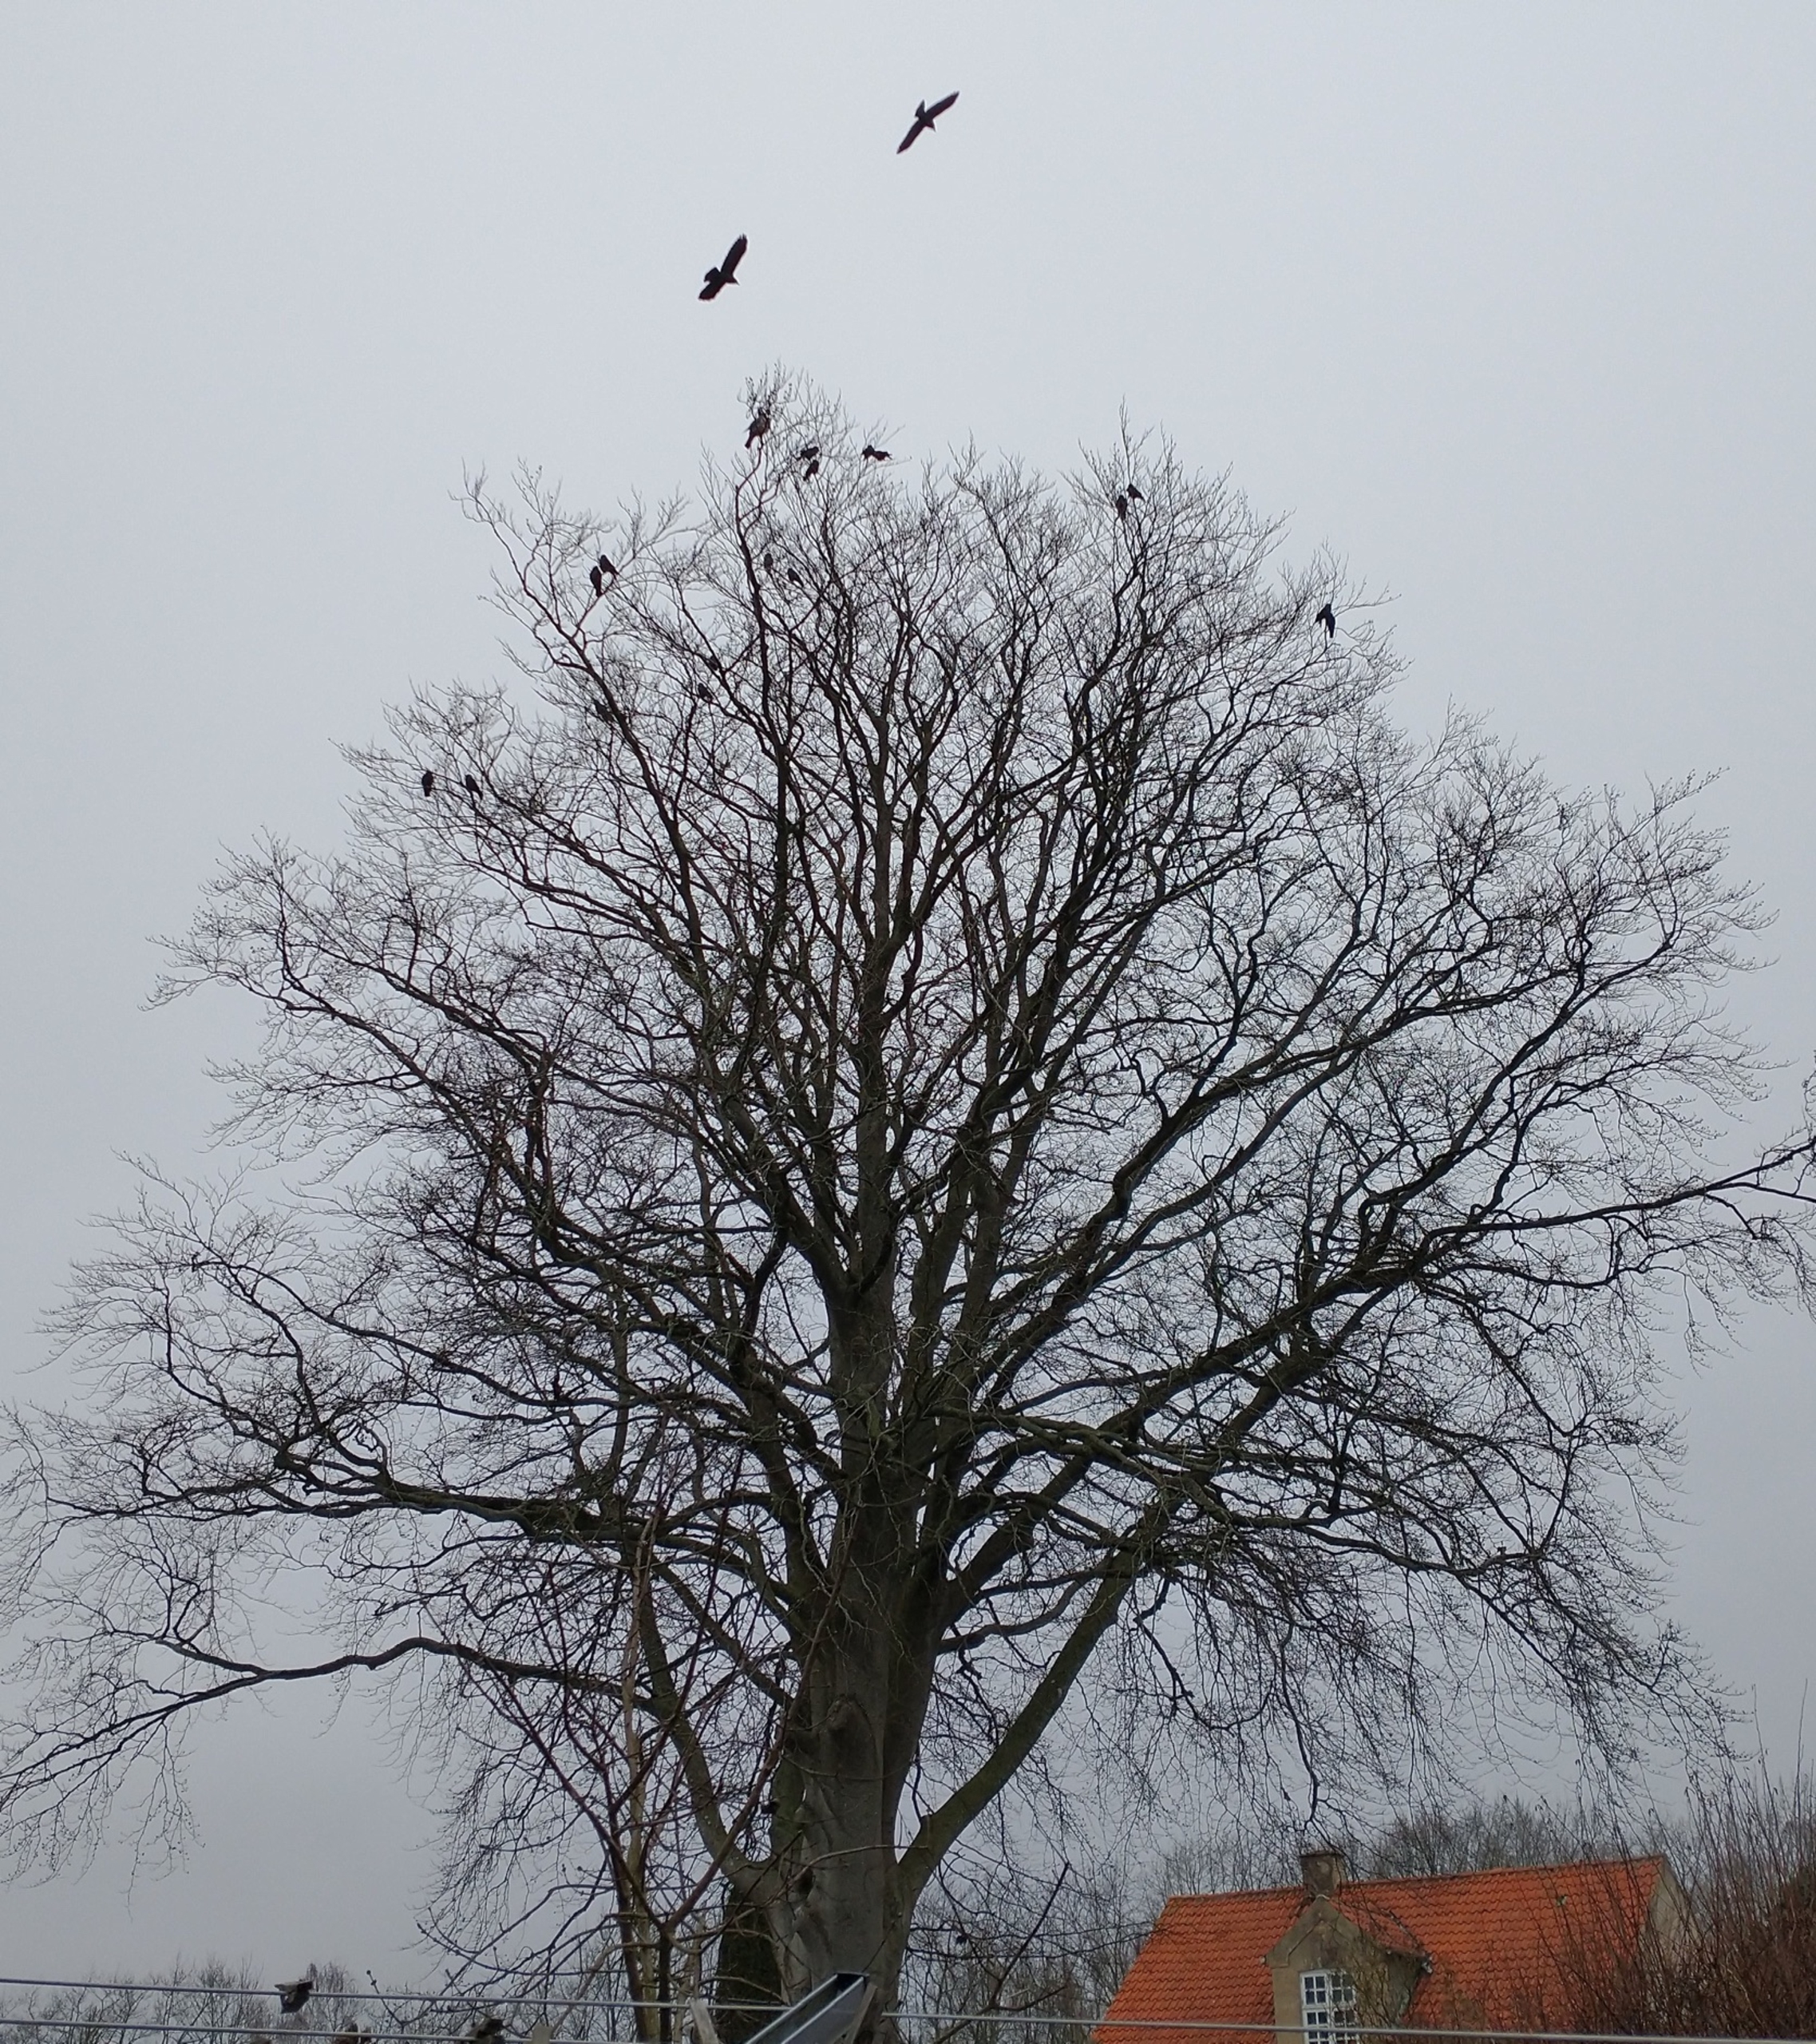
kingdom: Animalia
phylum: Chordata
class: Aves
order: Passeriformes
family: Corvidae
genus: Coloeus
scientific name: Coloeus monedula
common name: Allike
